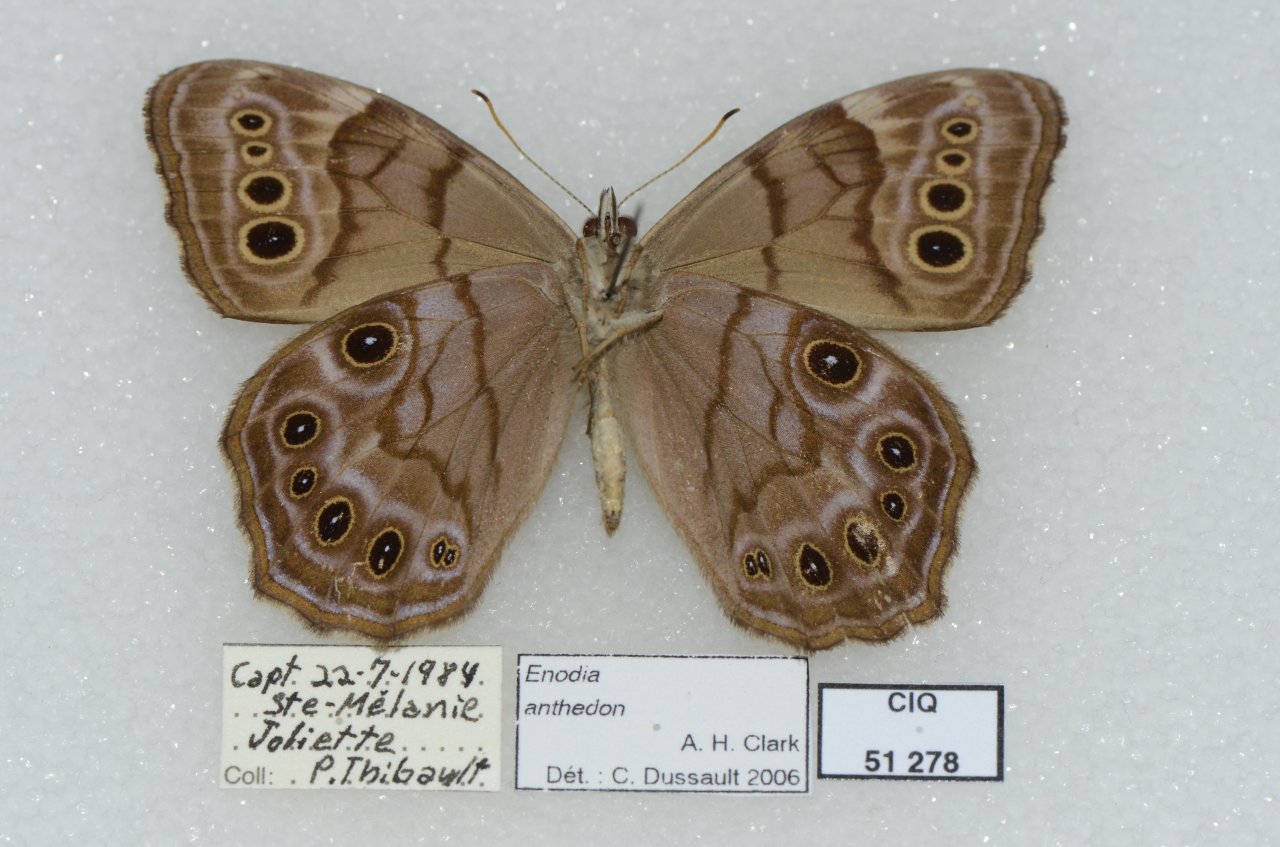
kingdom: Animalia
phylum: Arthropoda
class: Insecta
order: Lepidoptera
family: Nymphalidae
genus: Lethe
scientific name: Lethe anthedon
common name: Northern Pearly-Eye
